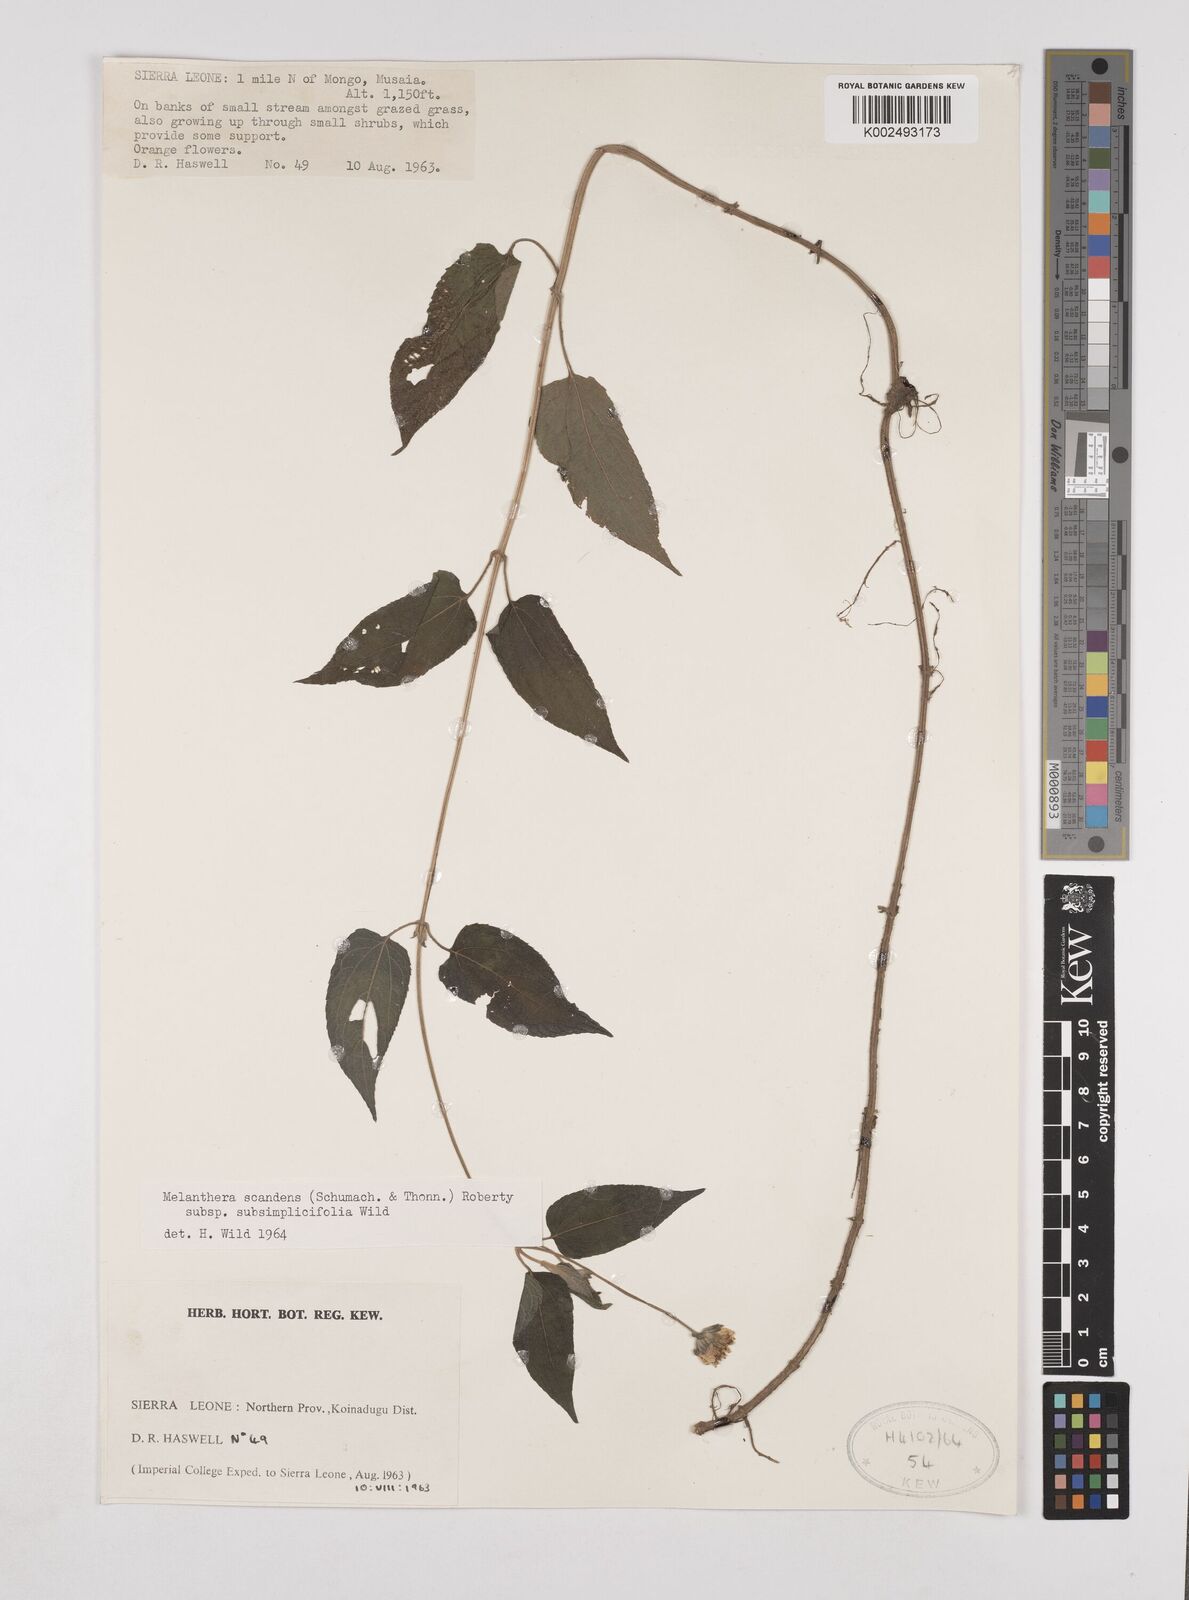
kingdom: Plantae
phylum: Tracheophyta
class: Magnoliopsida
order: Asterales
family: Asteraceae
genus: Lipotriche
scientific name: Lipotriche scandens
